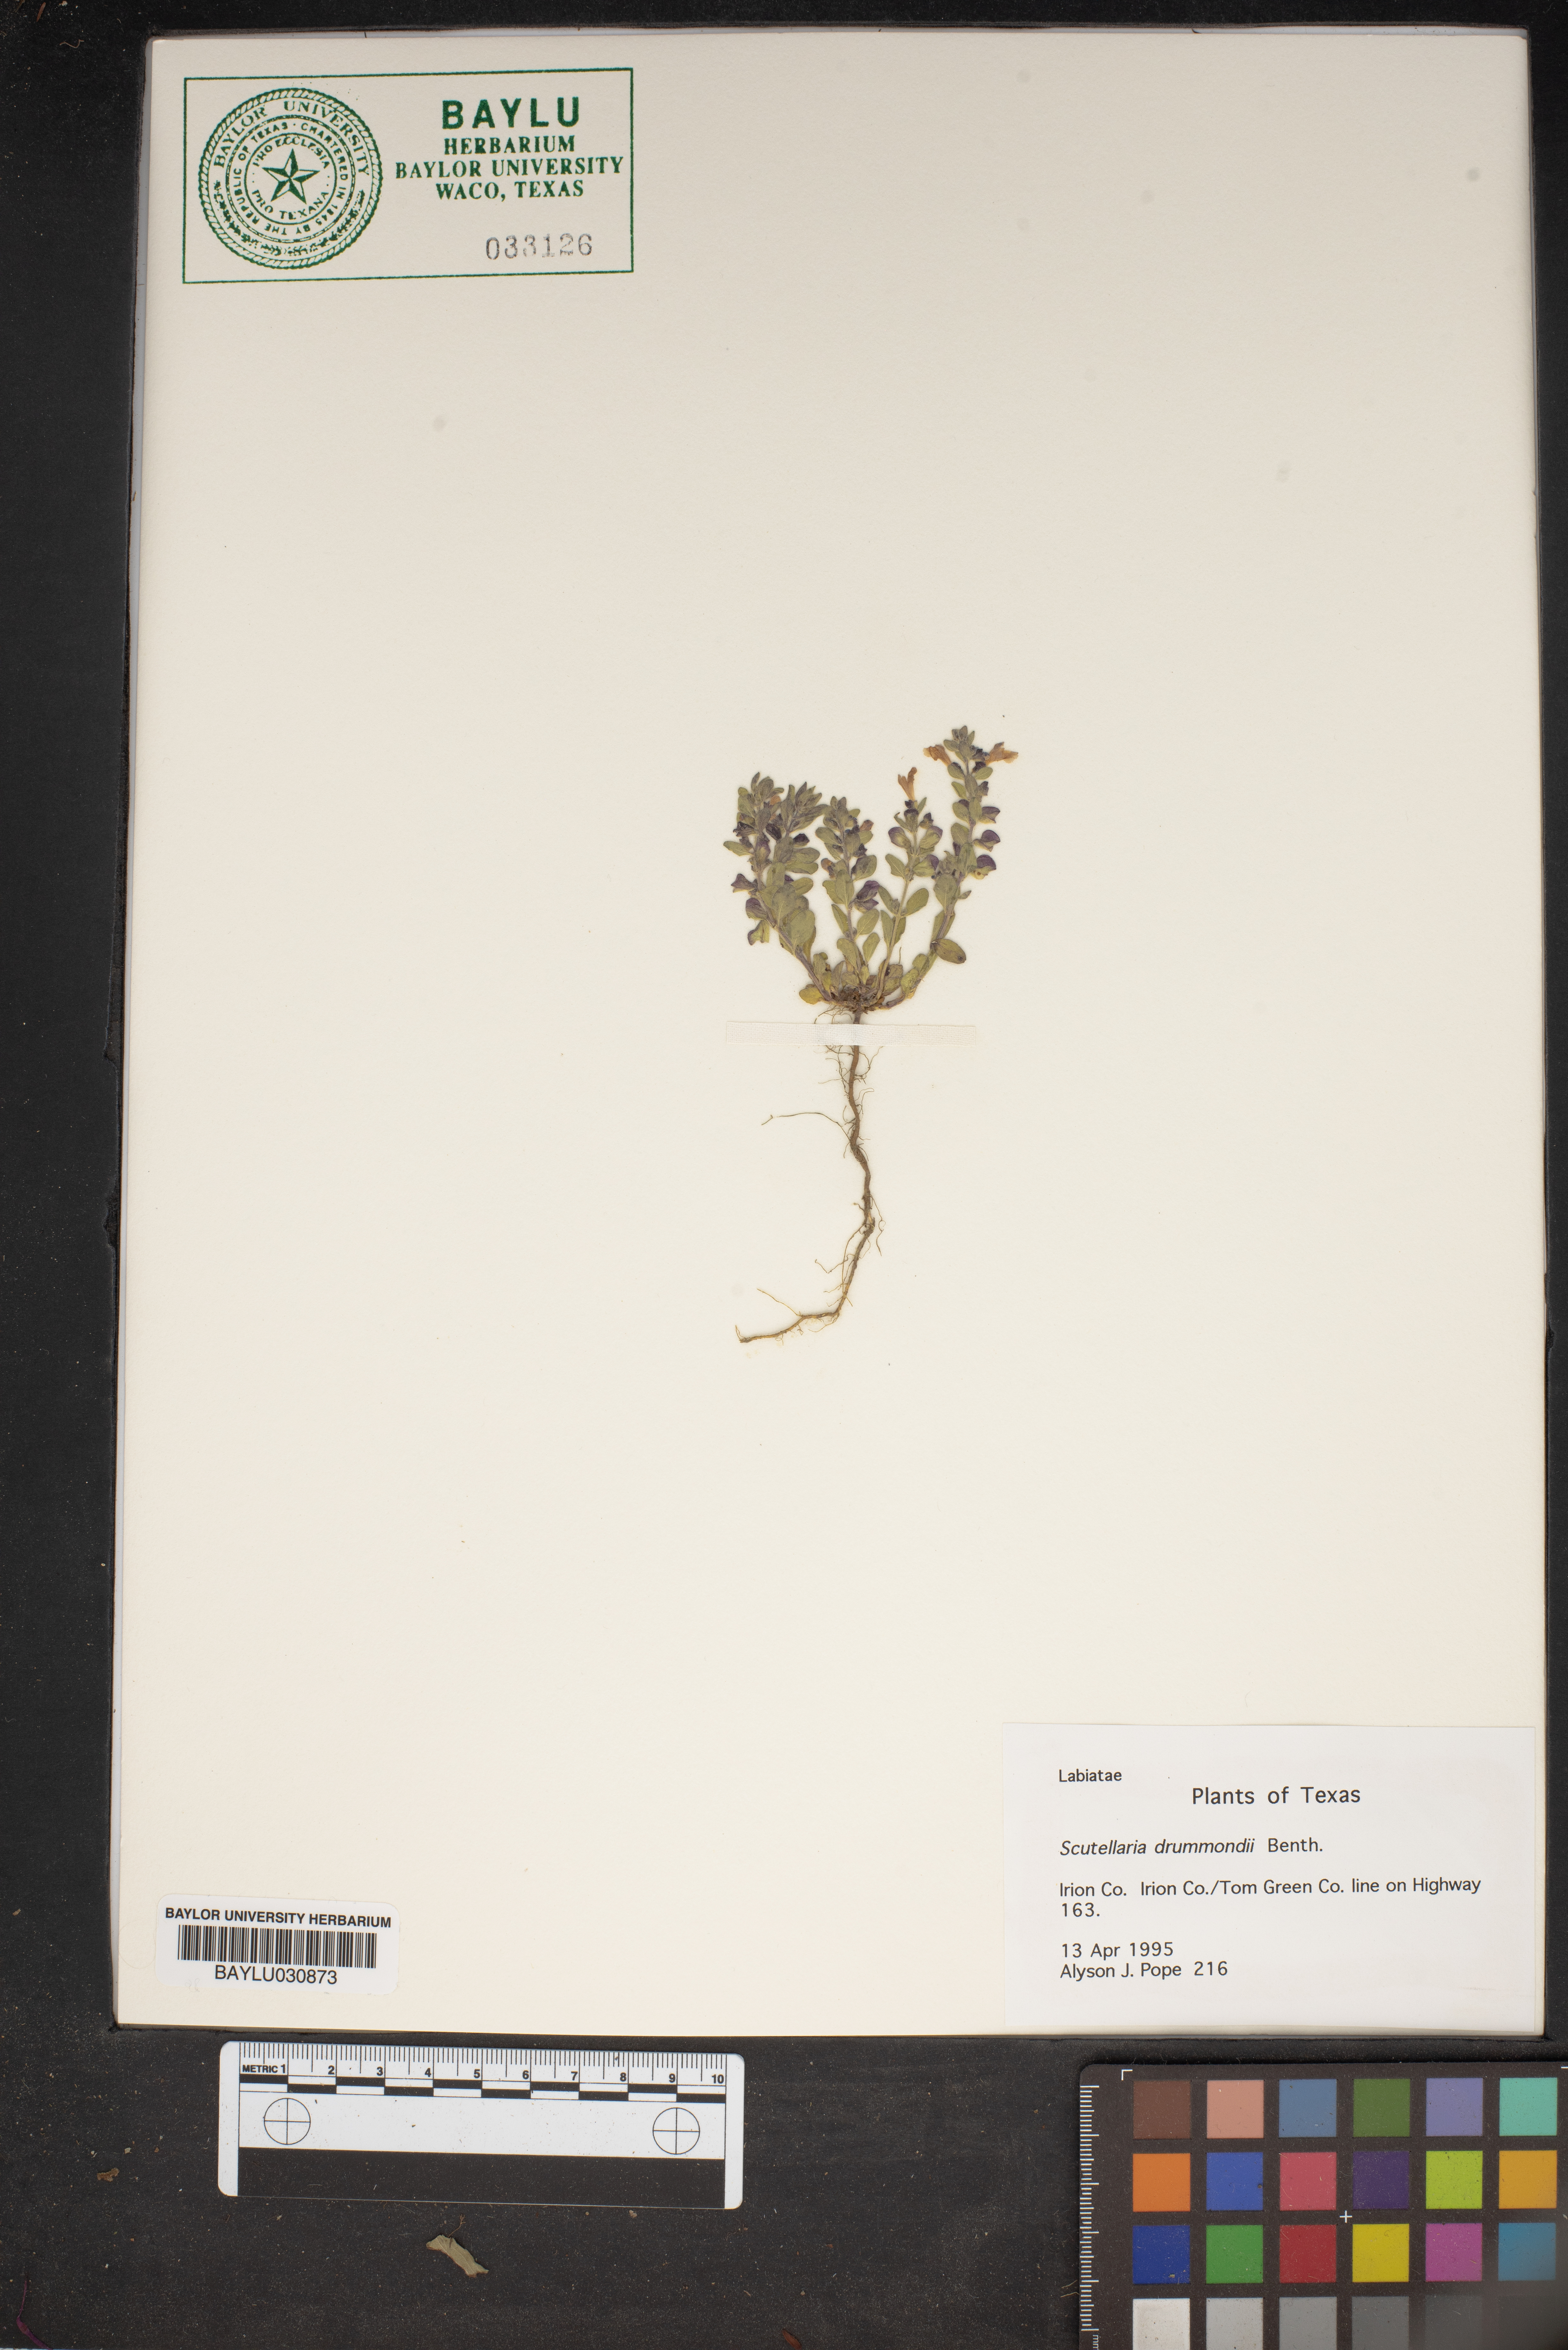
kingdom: Plantae
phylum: Tracheophyta
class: Magnoliopsida
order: Lamiales
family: Lamiaceae
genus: Scutellaria
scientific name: Scutellaria drummondii
